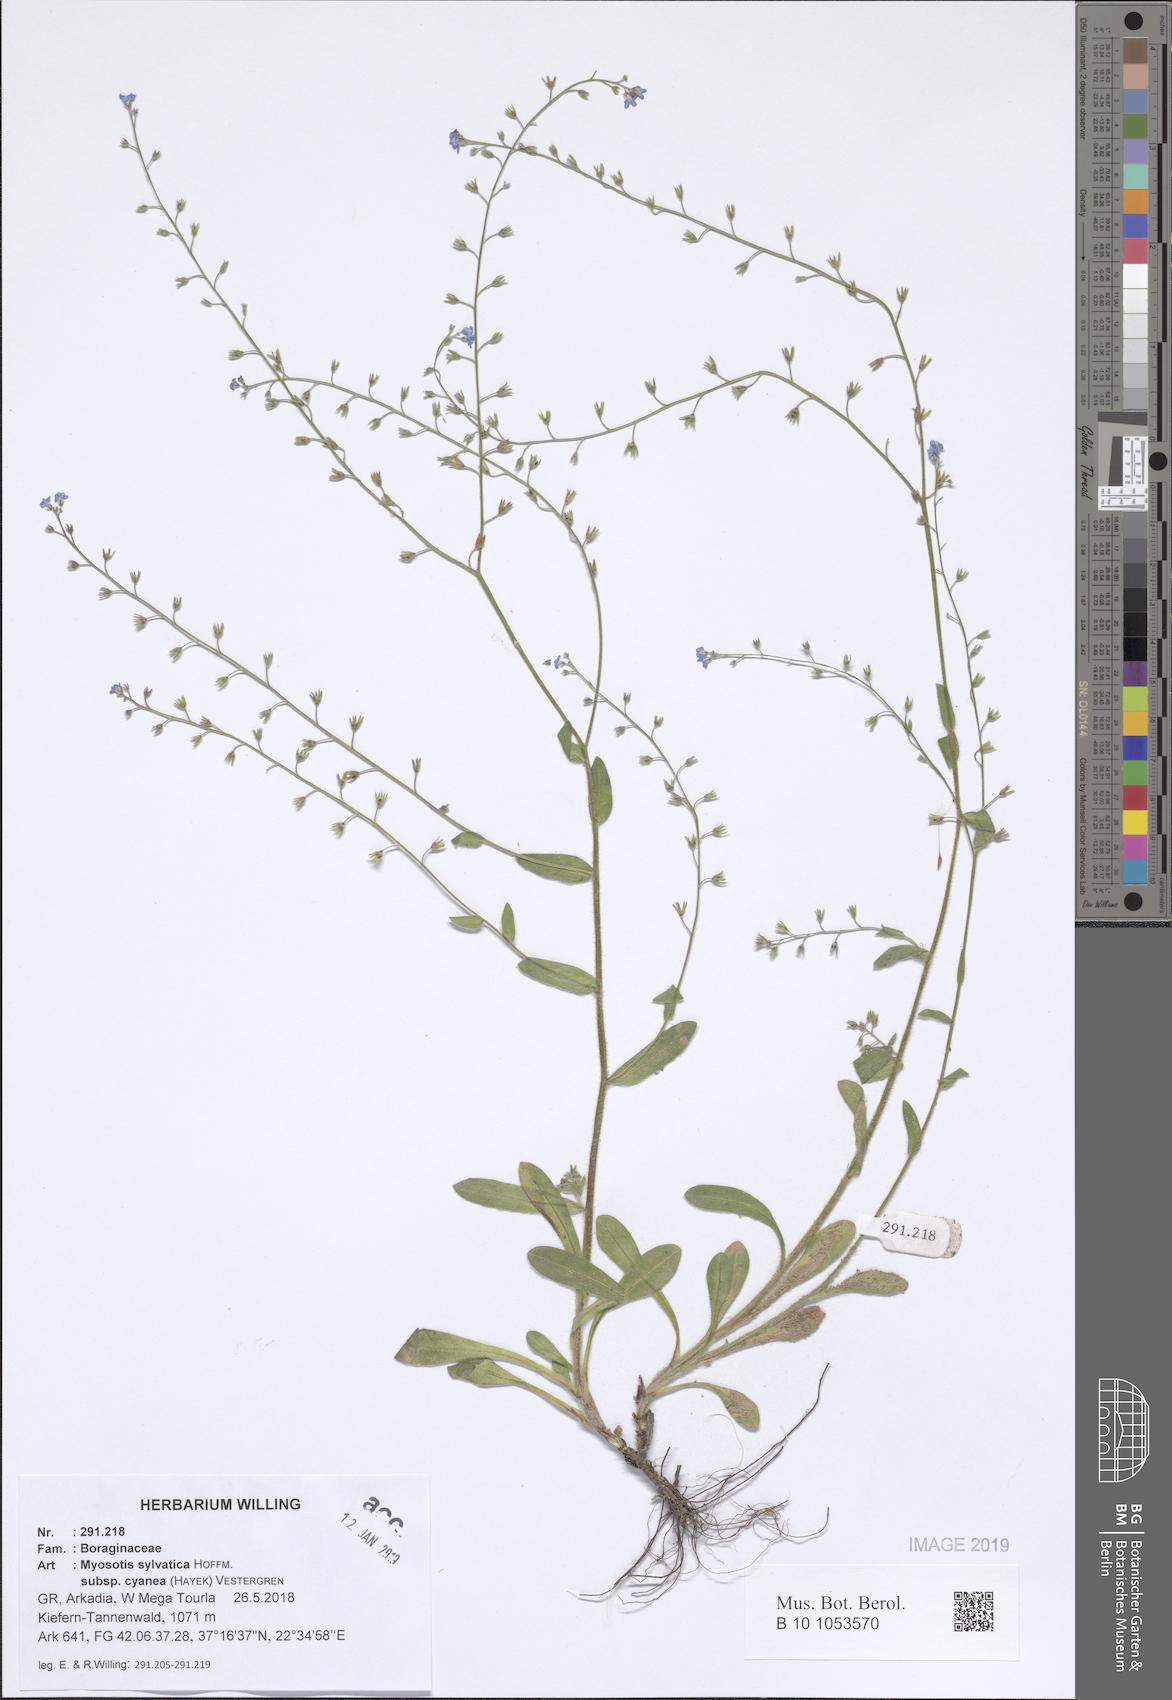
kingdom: Plantae
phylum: Tracheophyta
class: Magnoliopsida
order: Boraginales
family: Boraginaceae
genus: Myosotis
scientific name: Myosotis sylvatica
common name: Wood forget-me-not
